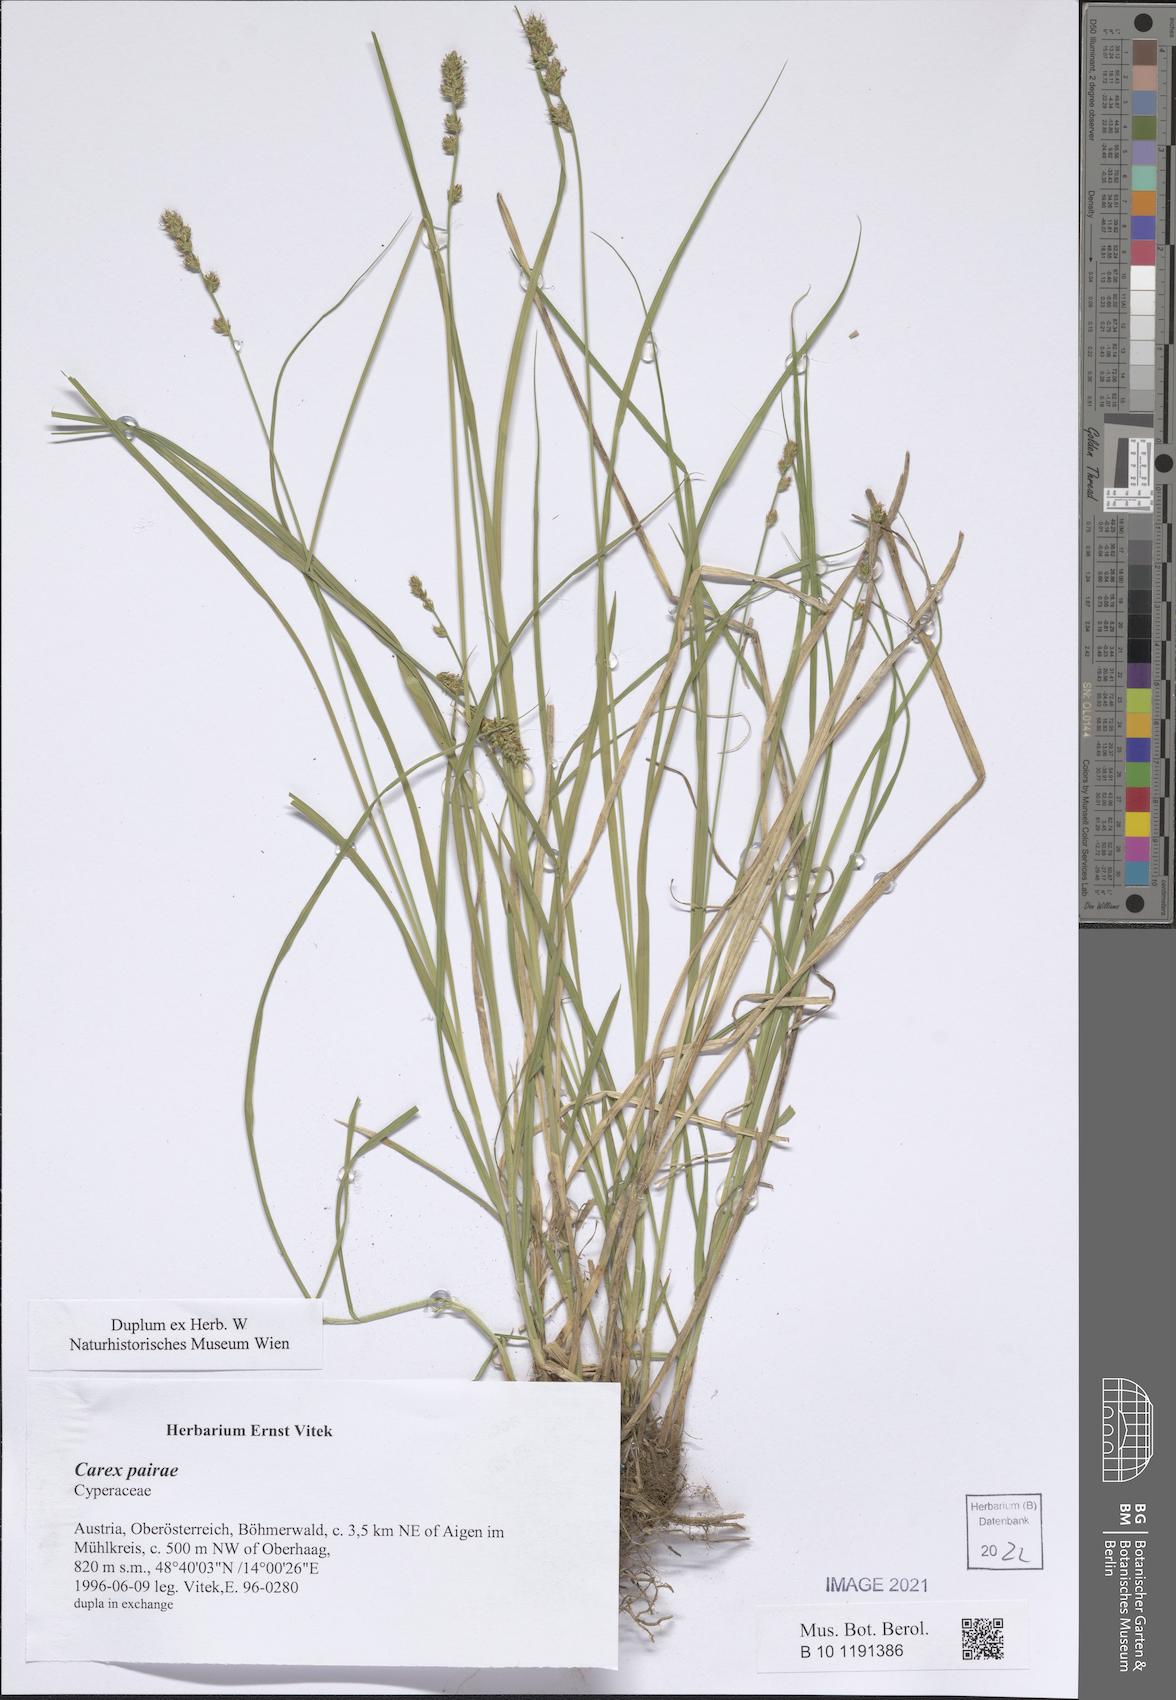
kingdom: Plantae
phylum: Tracheophyta
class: Liliopsida
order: Poales
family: Cyperaceae
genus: Carex
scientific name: Carex pairae
